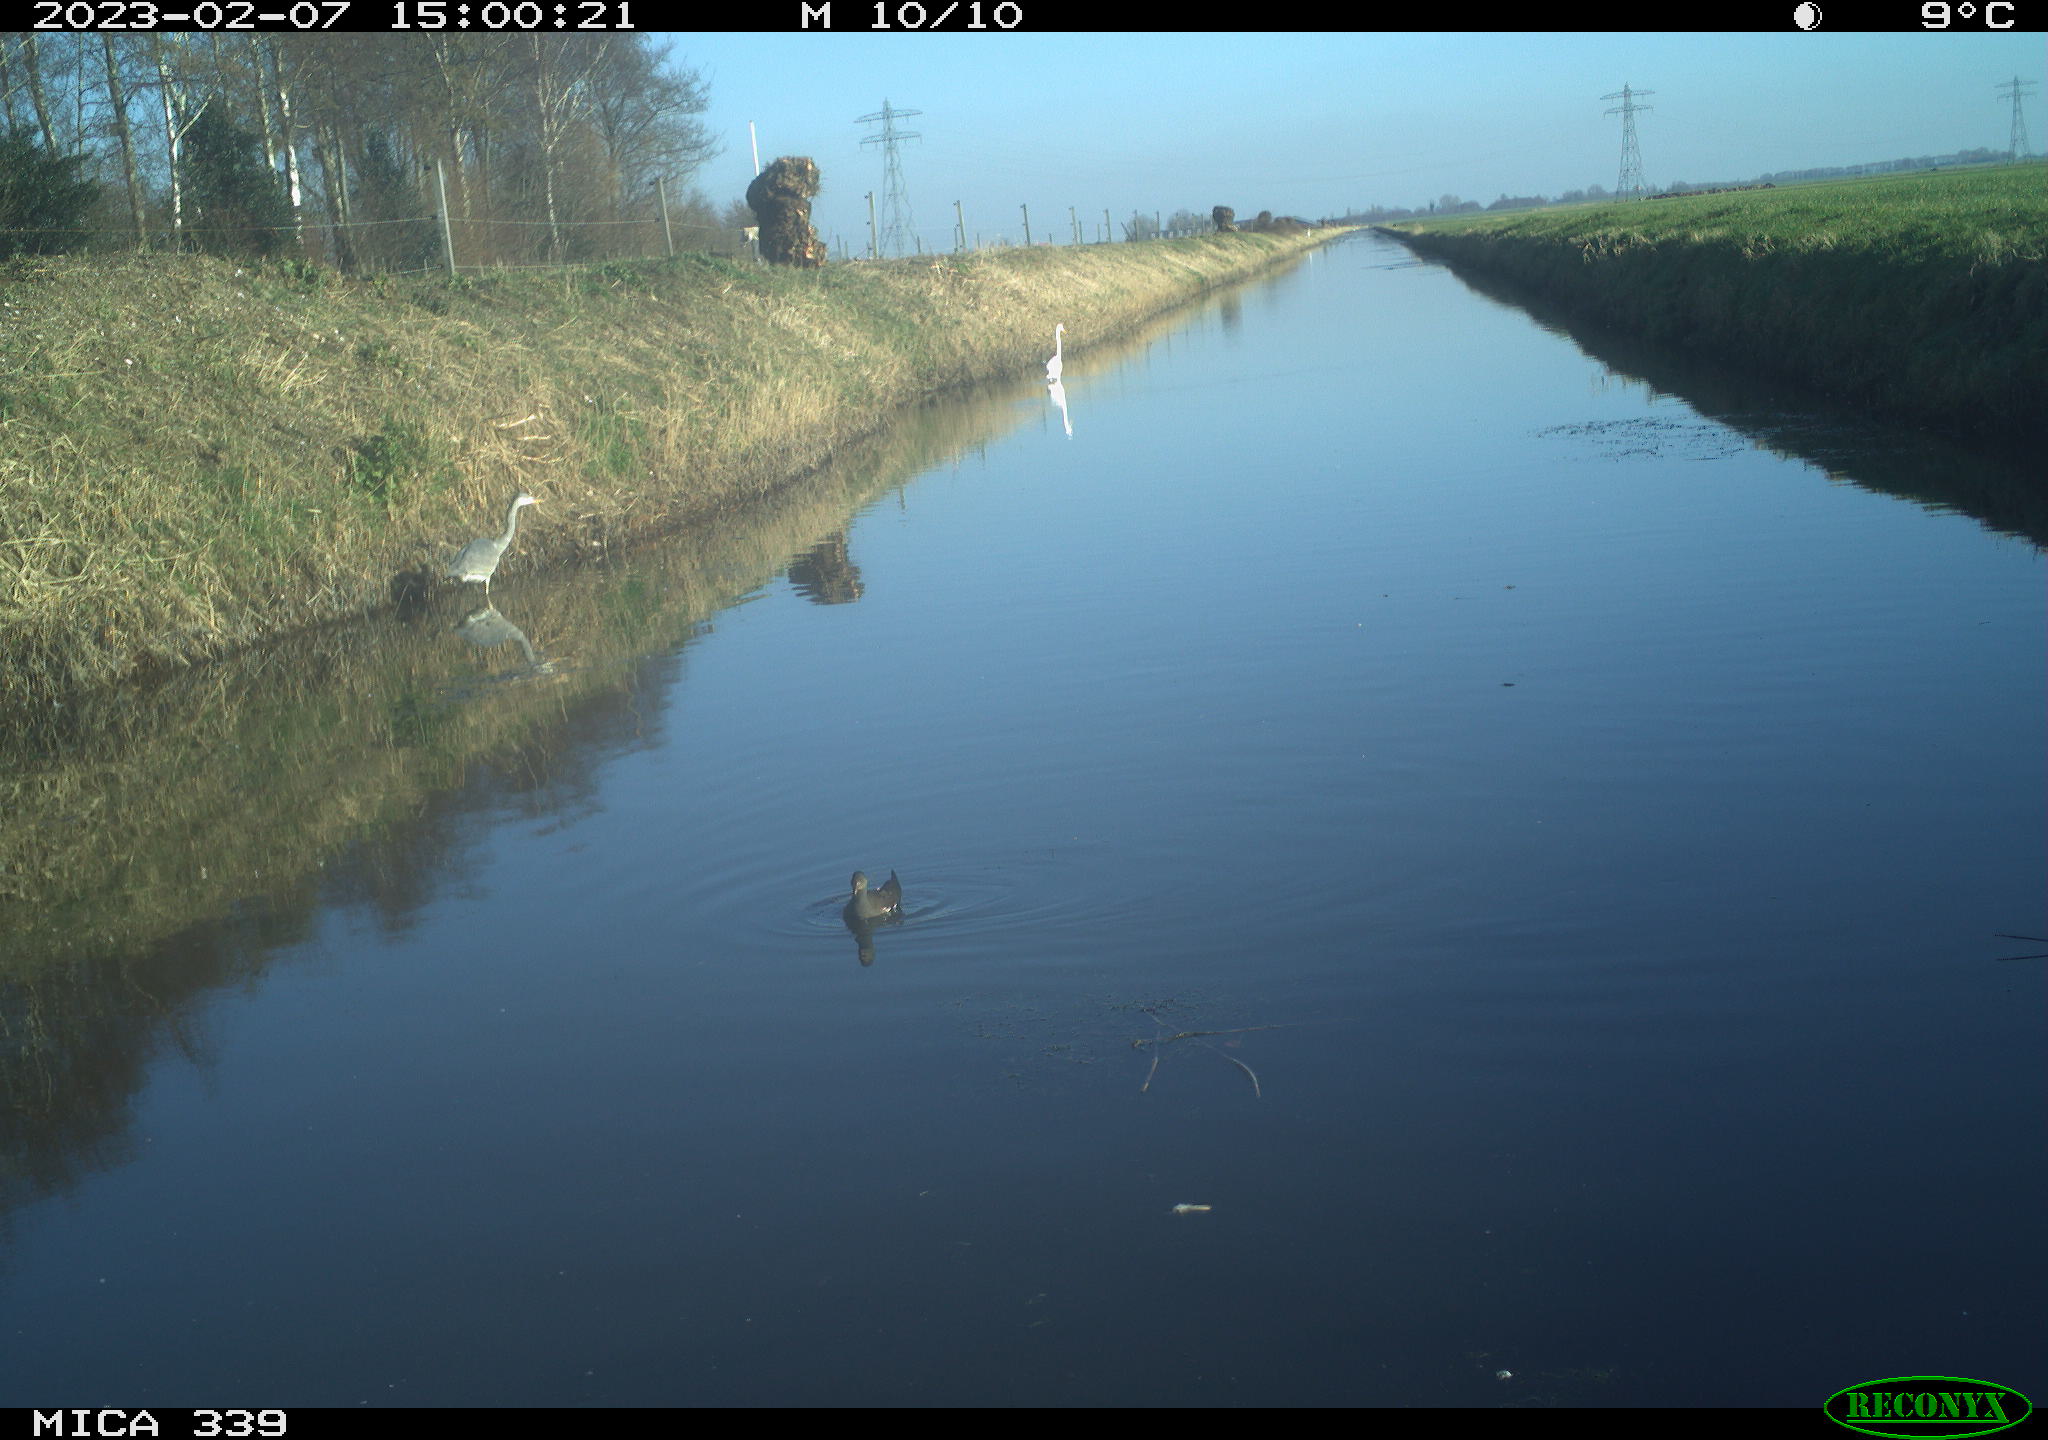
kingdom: Animalia
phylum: Chordata
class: Aves
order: Pelecaniformes
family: Ardeidae
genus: Ardea
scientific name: Ardea cinerea
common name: Grey heron
